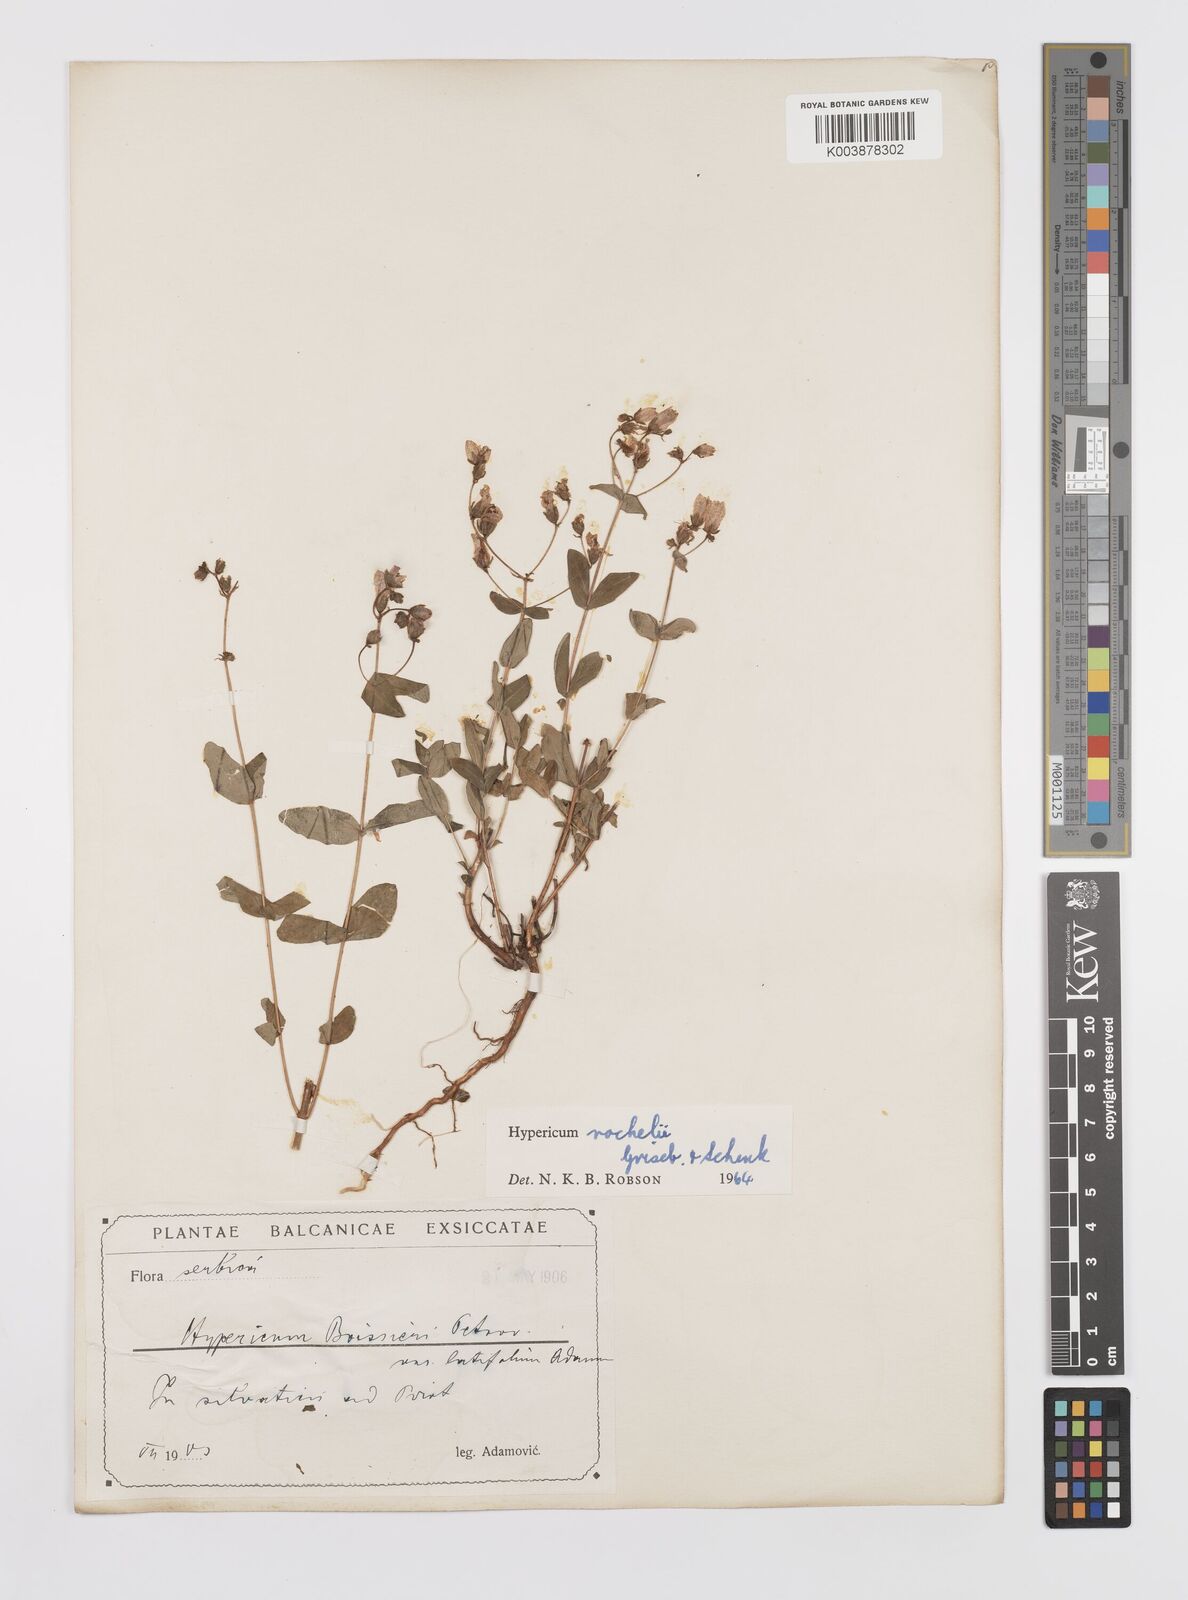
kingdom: Plantae
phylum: Tracheophyta
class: Magnoliopsida
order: Malpighiales
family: Hypericaceae
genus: Hypericum
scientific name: Hypericum rochelii
